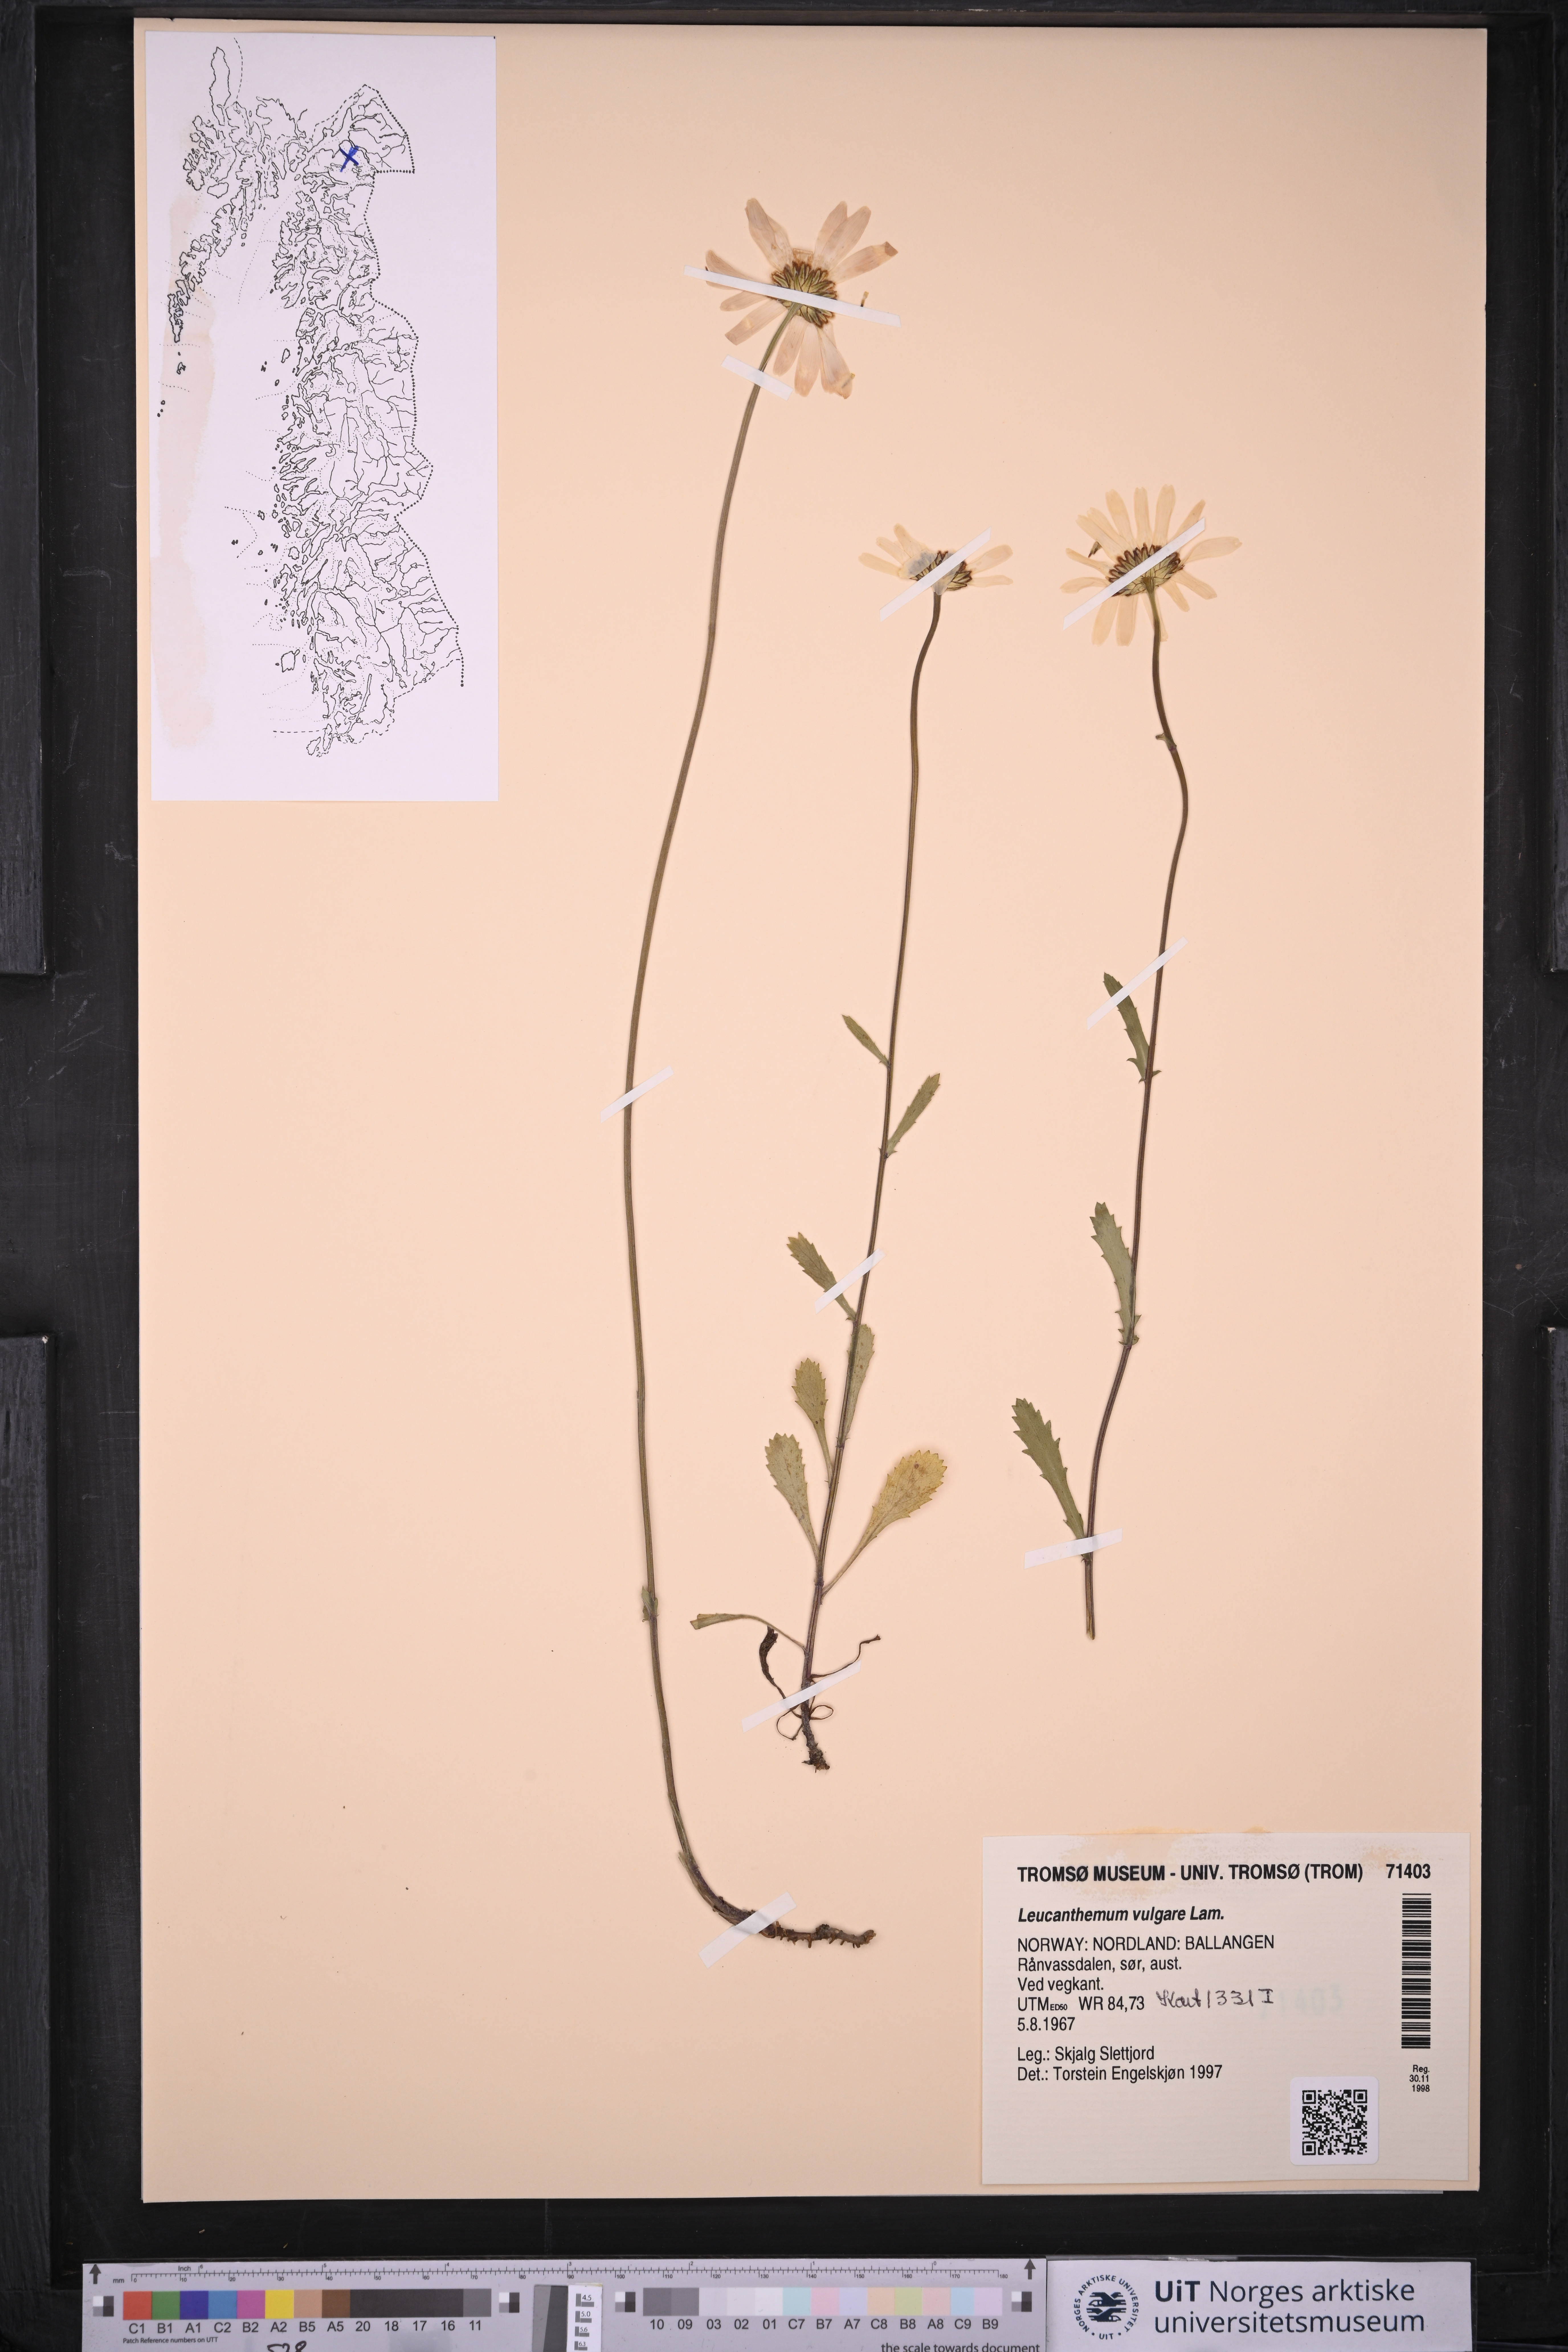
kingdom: Plantae
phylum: Tracheophyta
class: Magnoliopsida
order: Asterales
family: Asteraceae
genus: Leucanthemum
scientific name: Leucanthemum vulgare
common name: Oxeye daisy
